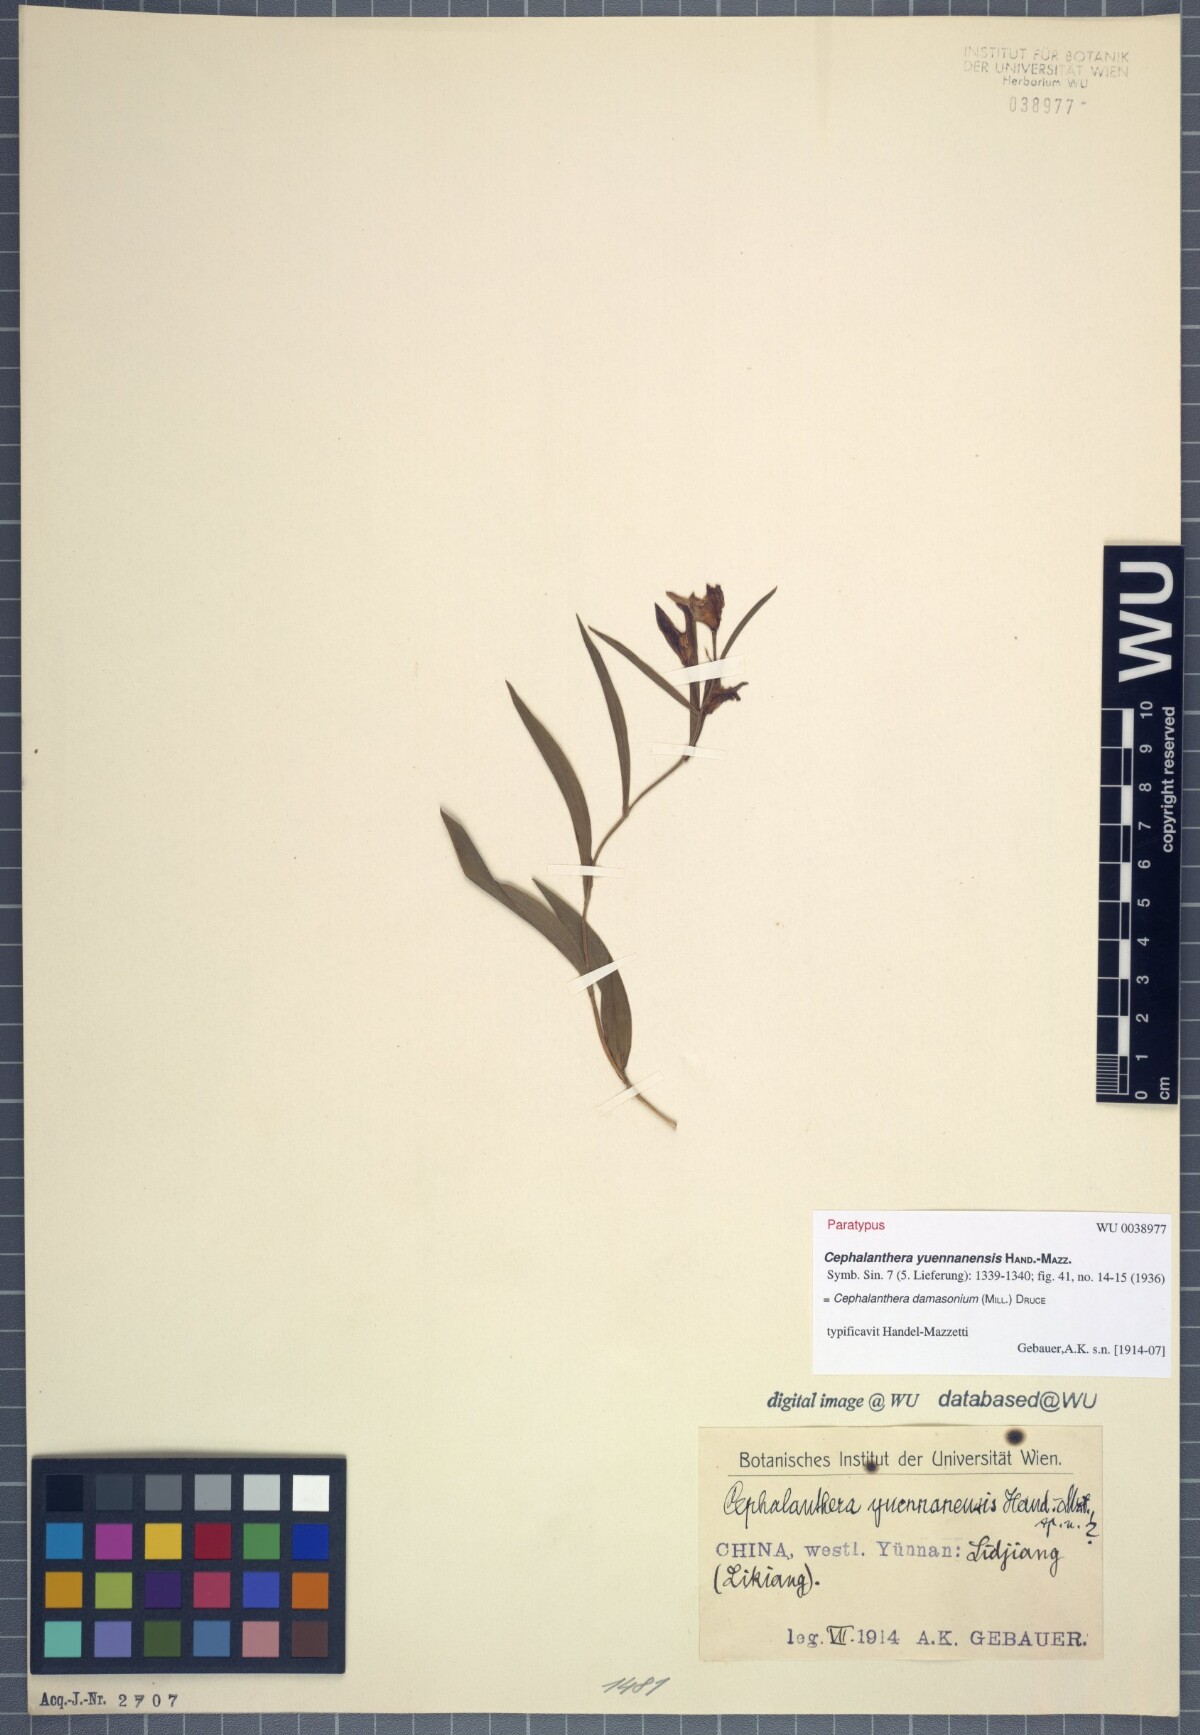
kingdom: Plantae
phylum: Tracheophyta
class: Liliopsida
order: Asparagales
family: Orchidaceae
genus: Cephalanthera
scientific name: Cephalanthera damasonium
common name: White helleborine
